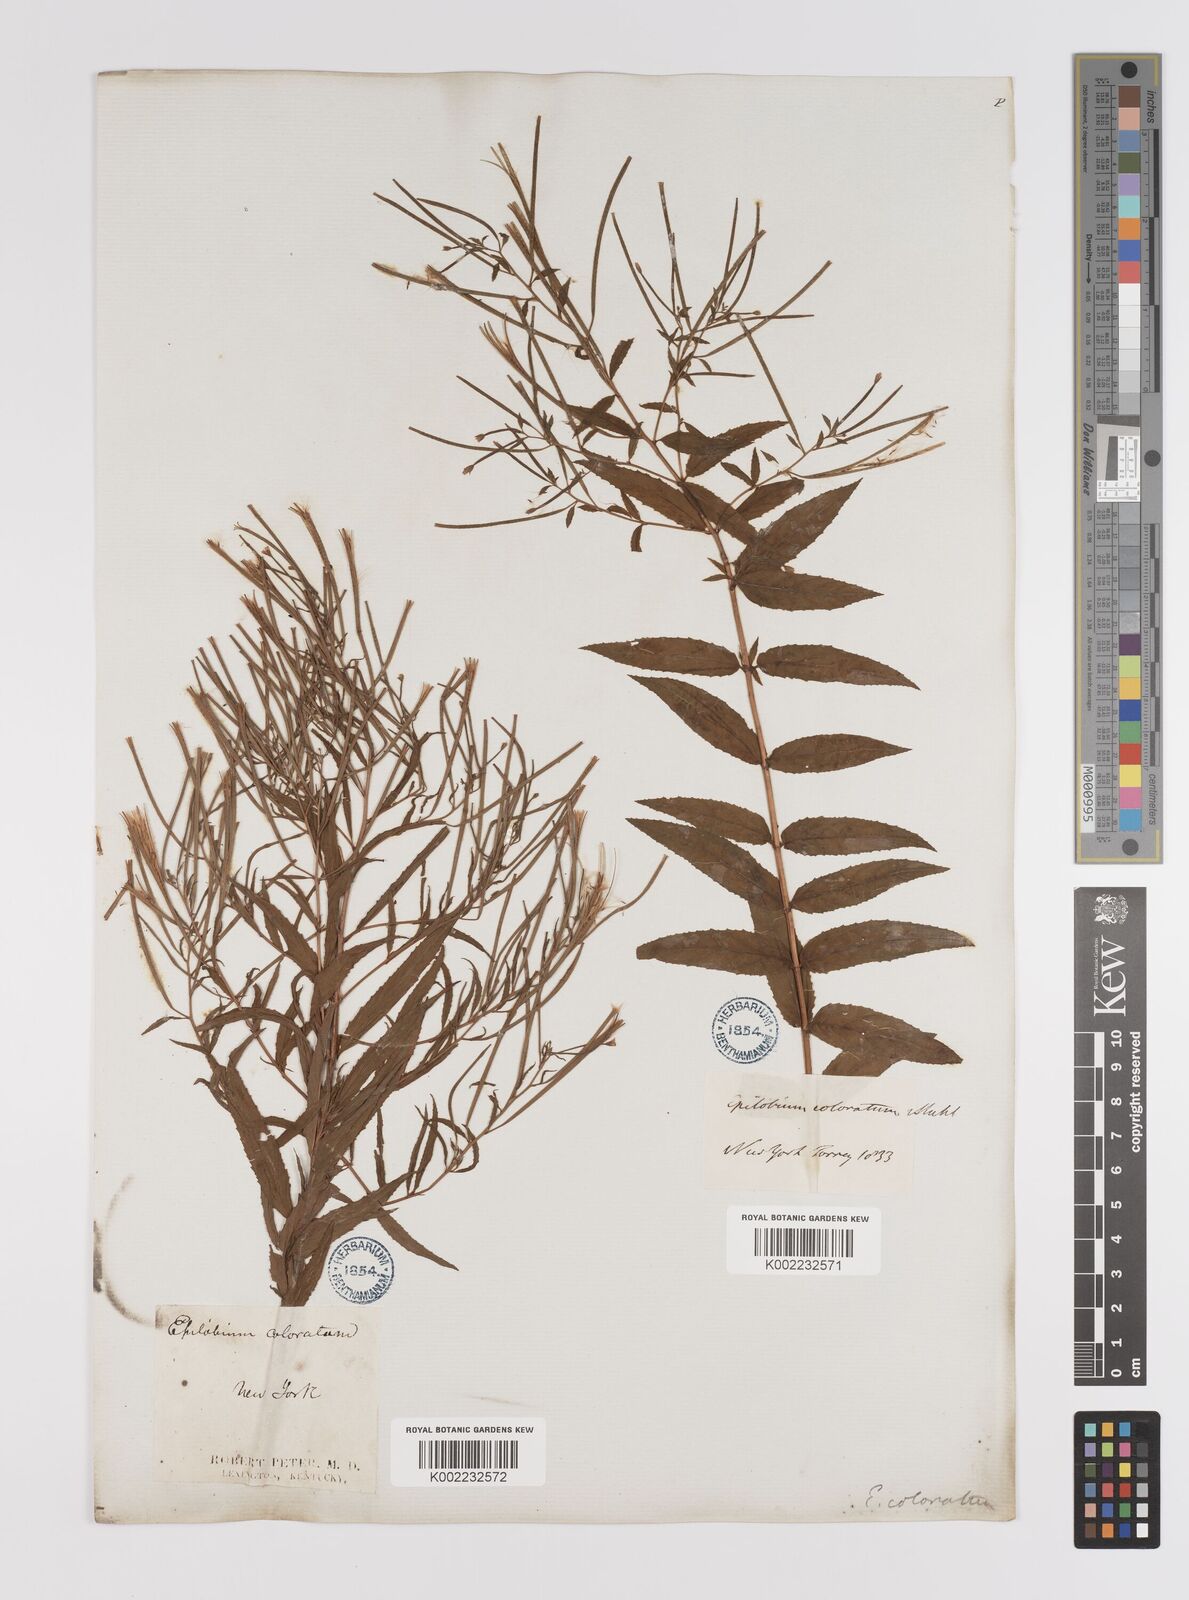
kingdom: Plantae
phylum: Tracheophyta
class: Magnoliopsida
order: Myrtales
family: Onagraceae
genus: Epilobium
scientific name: Epilobium coloratum
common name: Bronze willowherb
